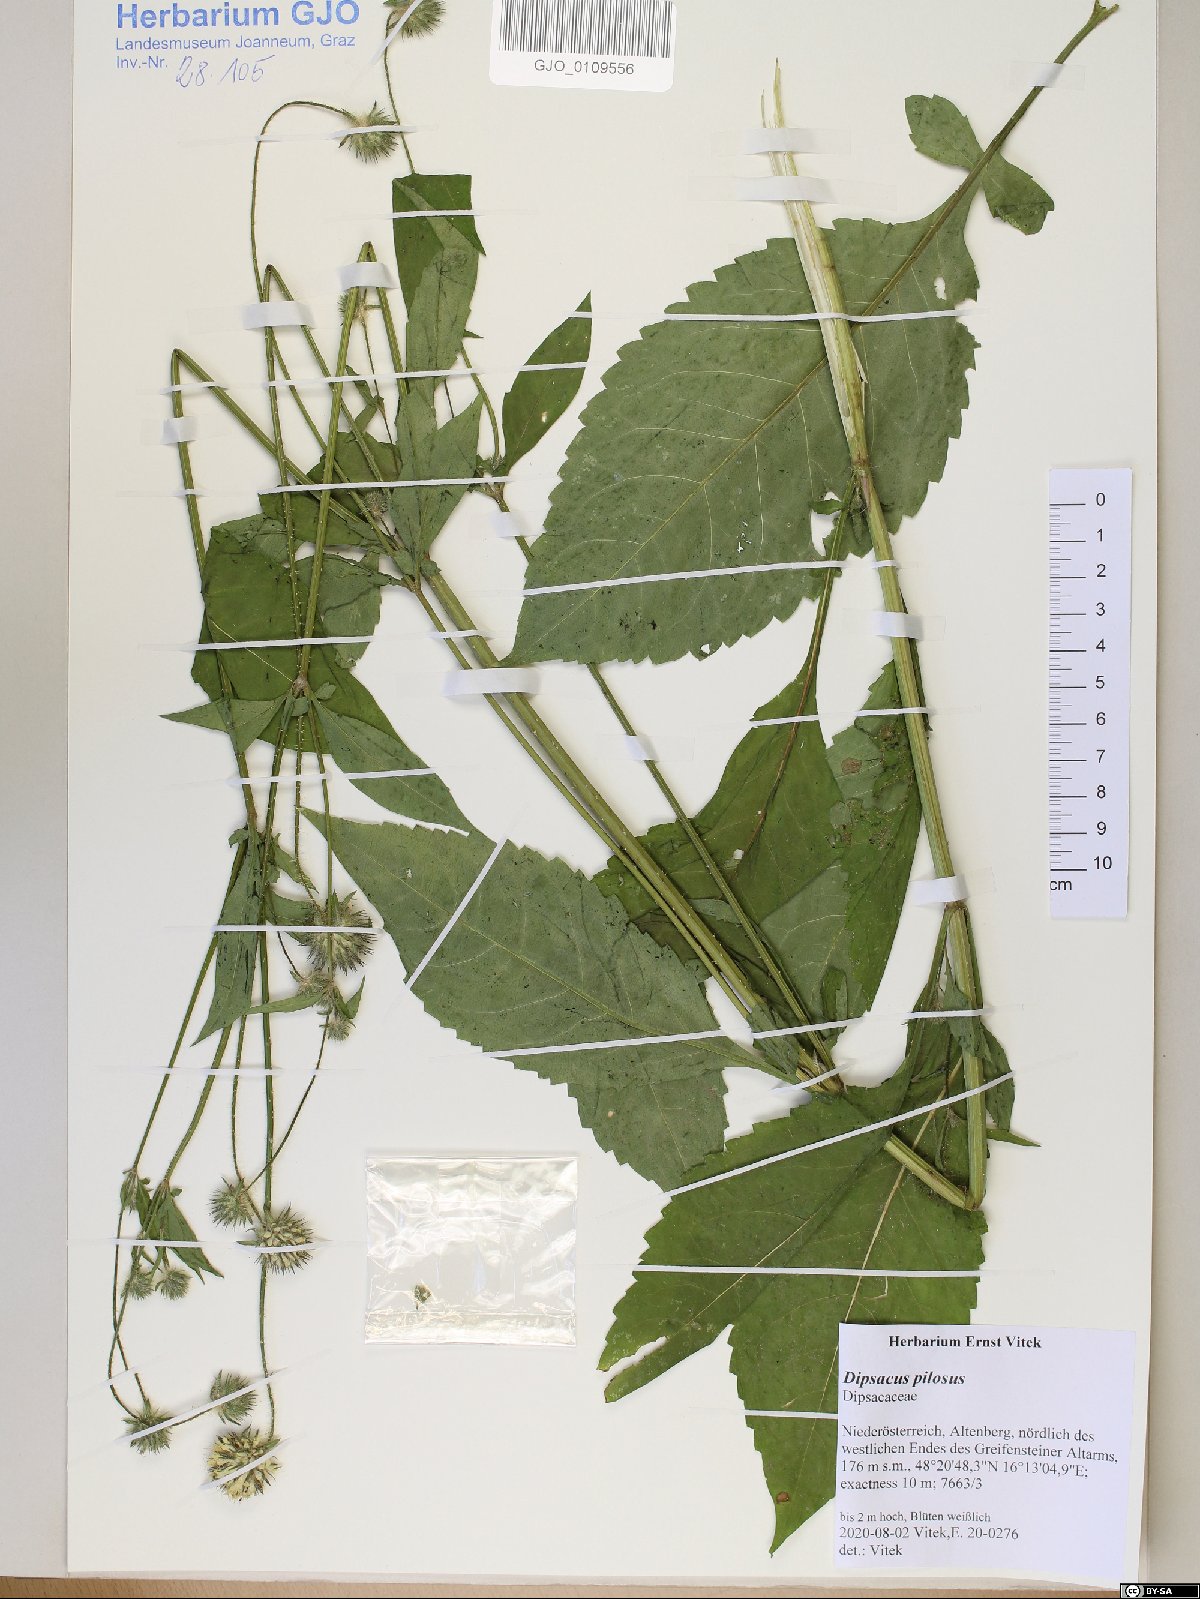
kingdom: Plantae
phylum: Tracheophyta
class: Magnoliopsida
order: Dipsacales
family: Caprifoliaceae
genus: Dipsacus
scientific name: Dipsacus pilosus
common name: Small teasel
